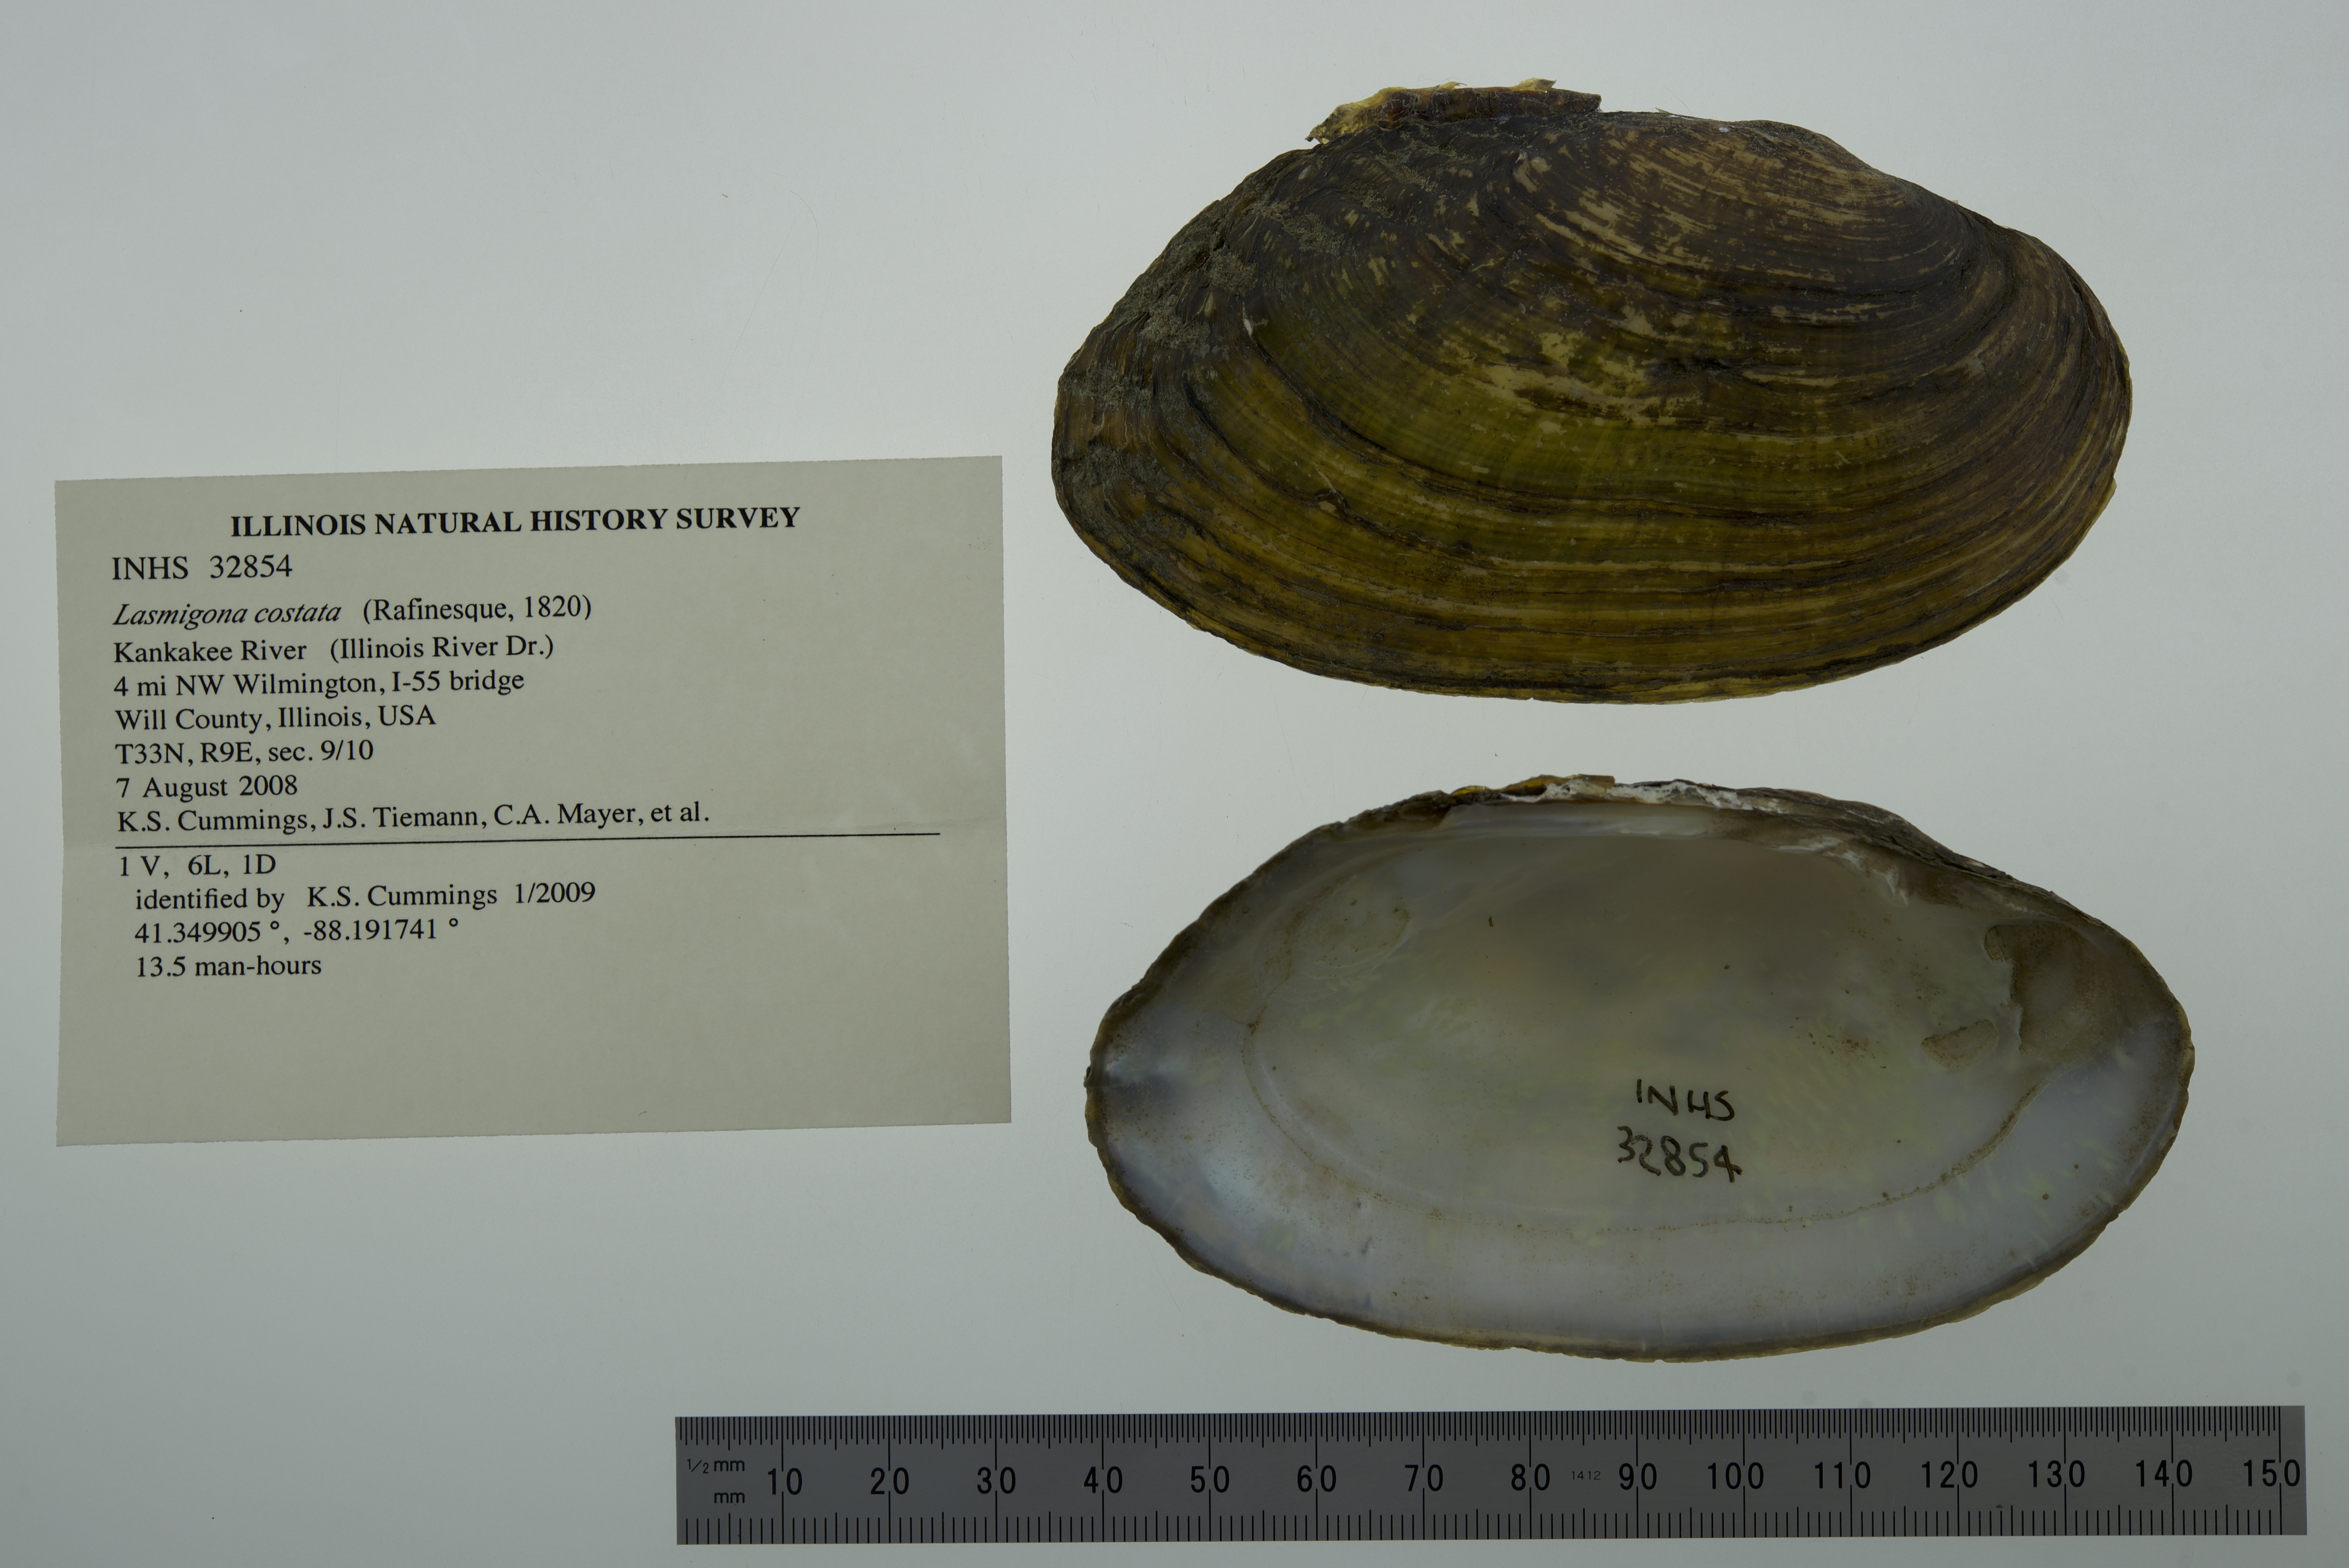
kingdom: Animalia
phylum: Mollusca
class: Bivalvia
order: Unionida
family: Unionidae
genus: Lasmigona
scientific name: Lasmigona costata
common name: Flutedshell
